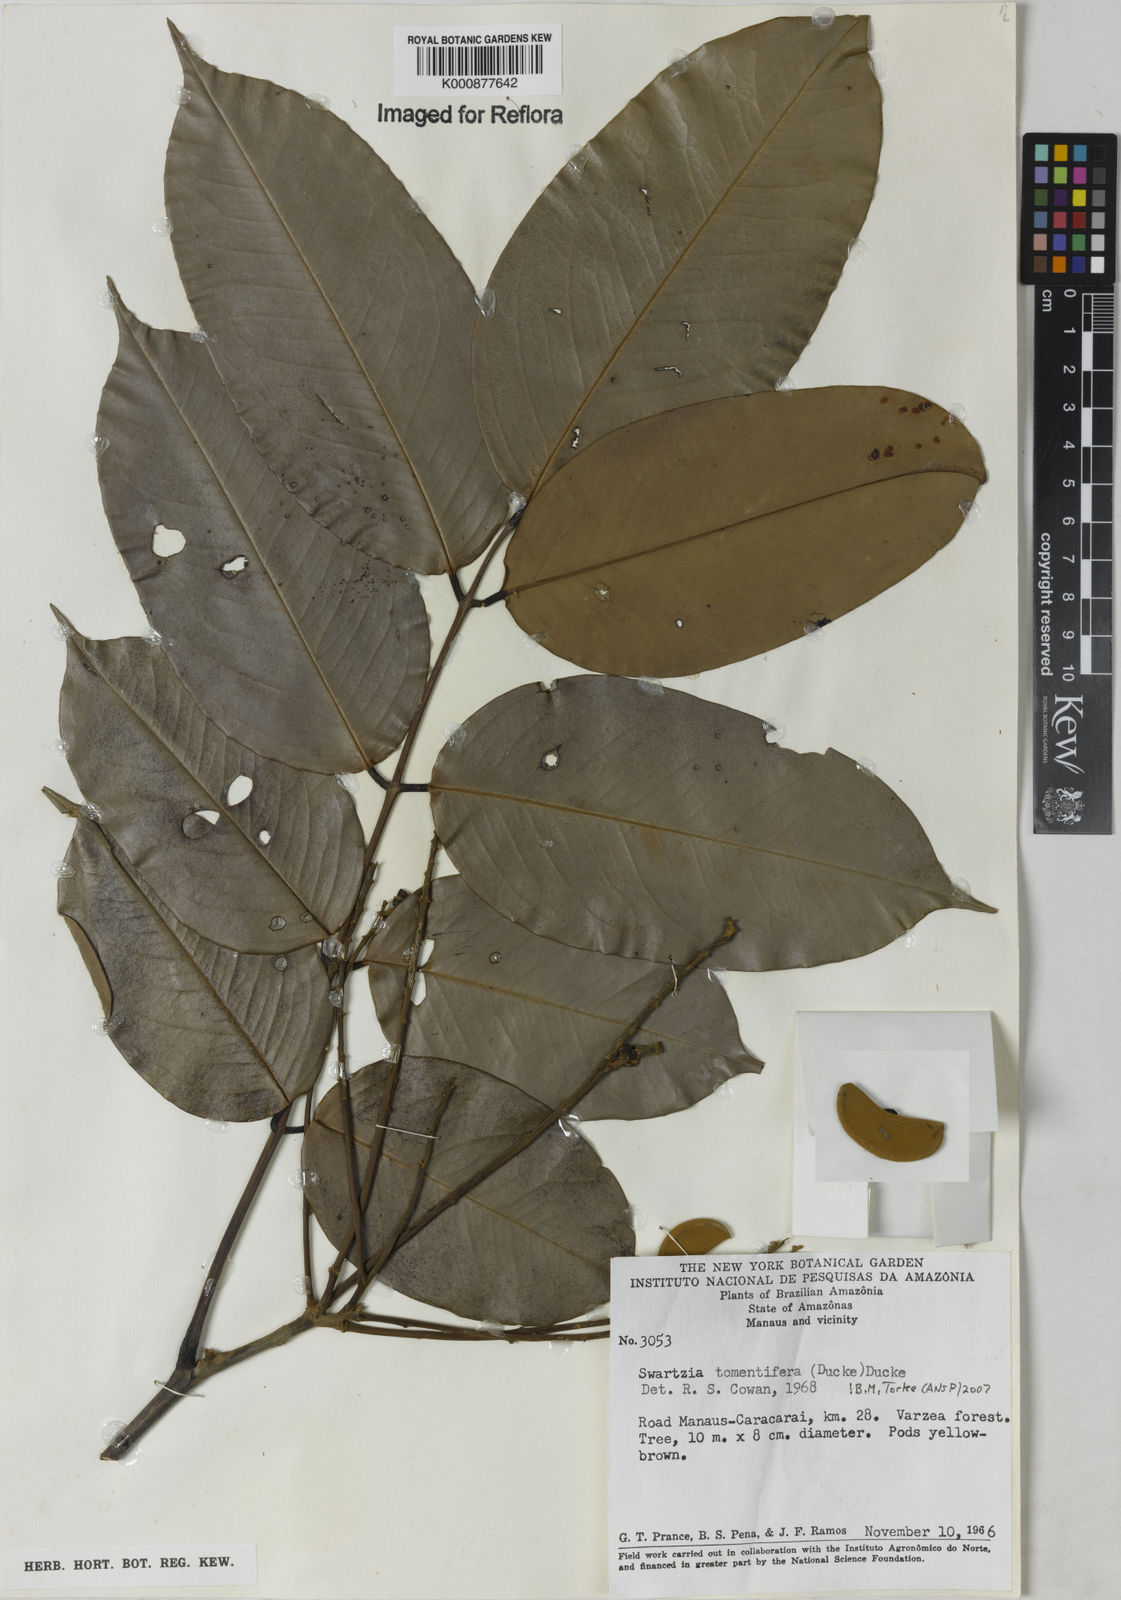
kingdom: Plantae
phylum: Tracheophyta
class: Magnoliopsida
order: Fabales
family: Fabaceae
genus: Swartzia
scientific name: Swartzia tomentifera
